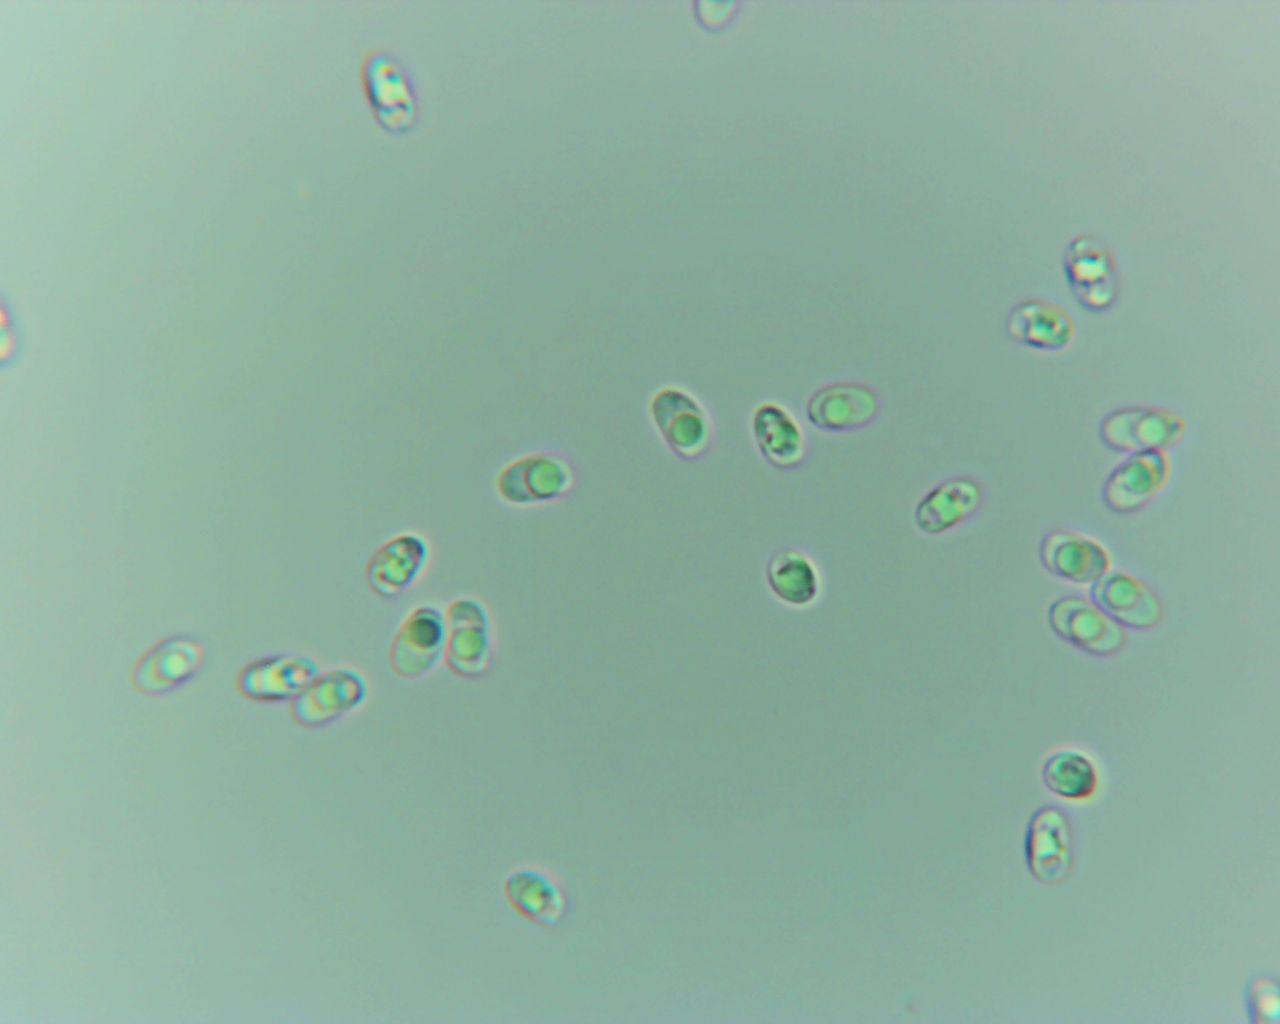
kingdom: Fungi
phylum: Basidiomycota
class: Agaricomycetes
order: Corticiales
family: Corticiaceae
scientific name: Corticiaceae
